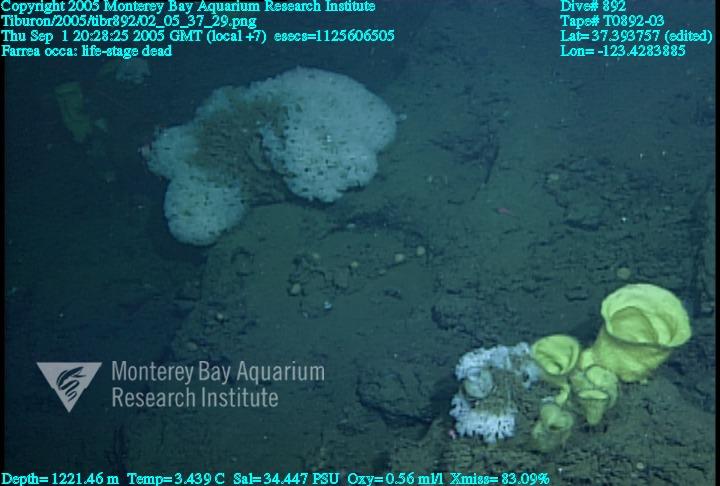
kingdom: Animalia
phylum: Porifera
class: Hexactinellida
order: Sceptrulophora
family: Farreidae
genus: Farrea
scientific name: Farrea occa
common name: Reversed glass sponge
